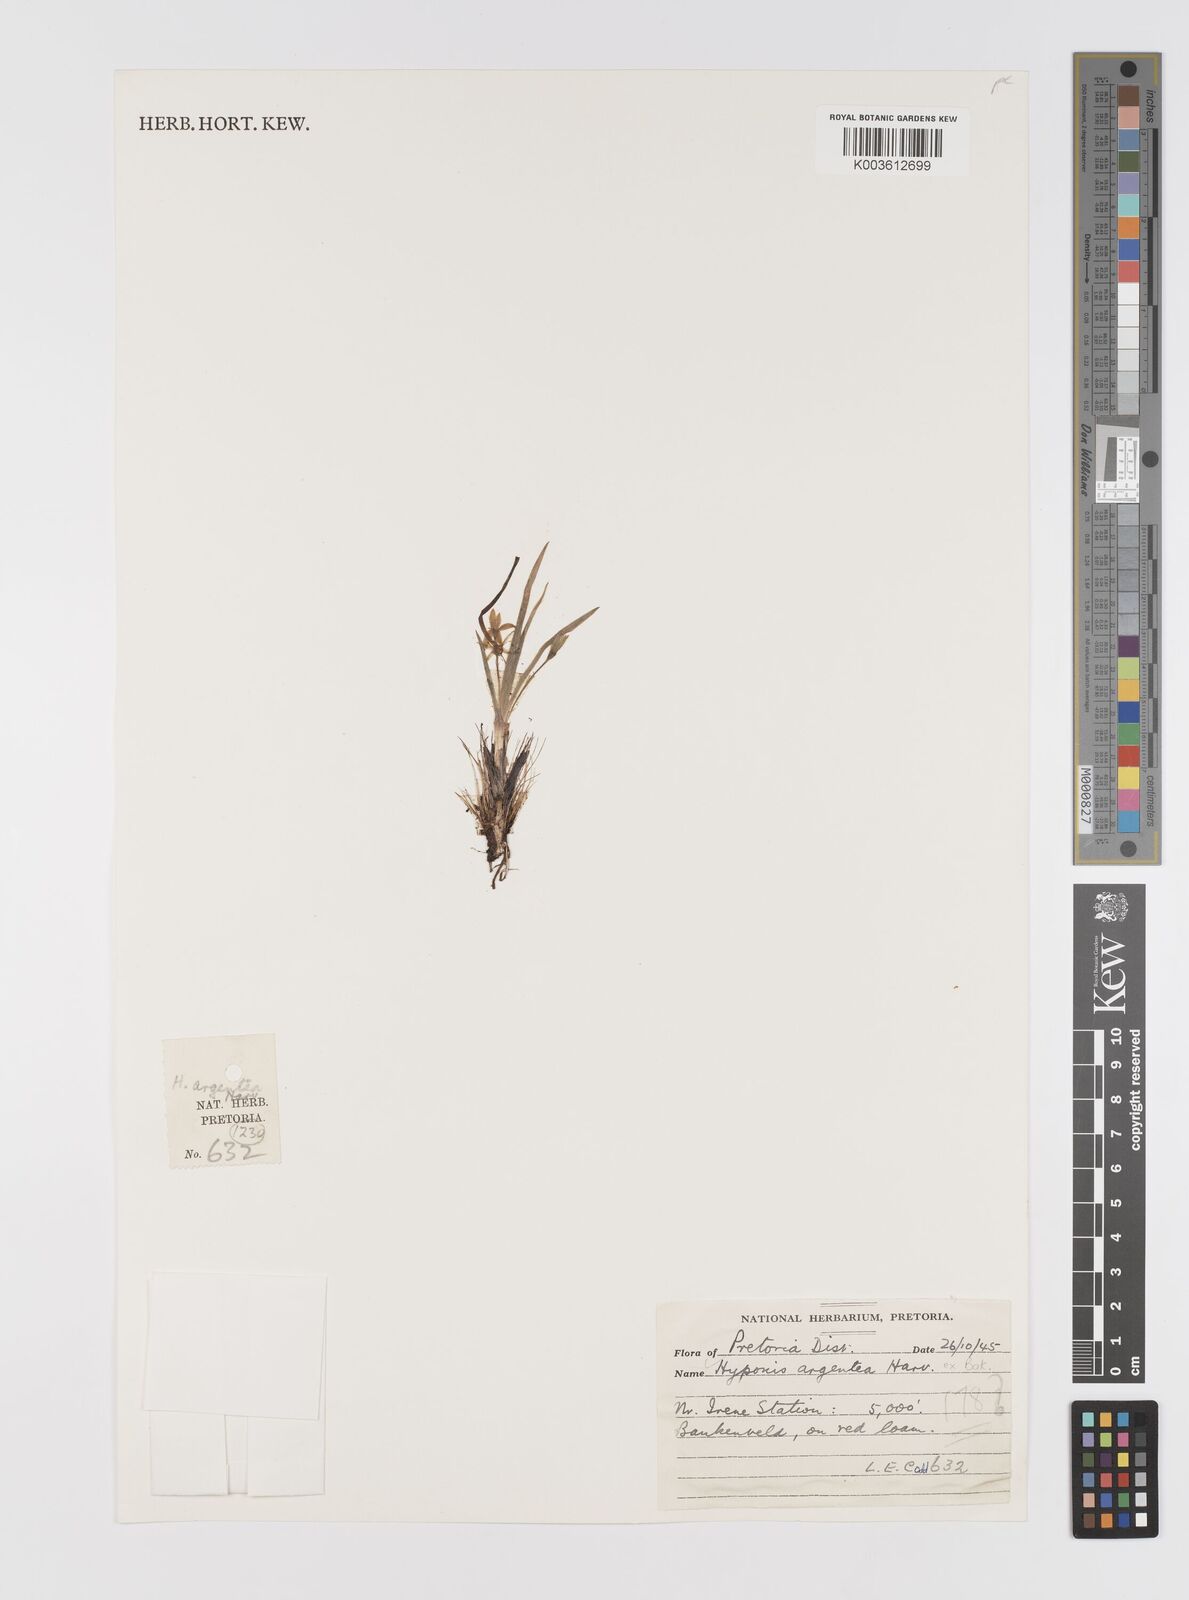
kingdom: Plantae
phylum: Tracheophyta
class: Liliopsida
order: Asparagales
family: Hypoxidaceae
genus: Hypoxis
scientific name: Hypoxis argentea
